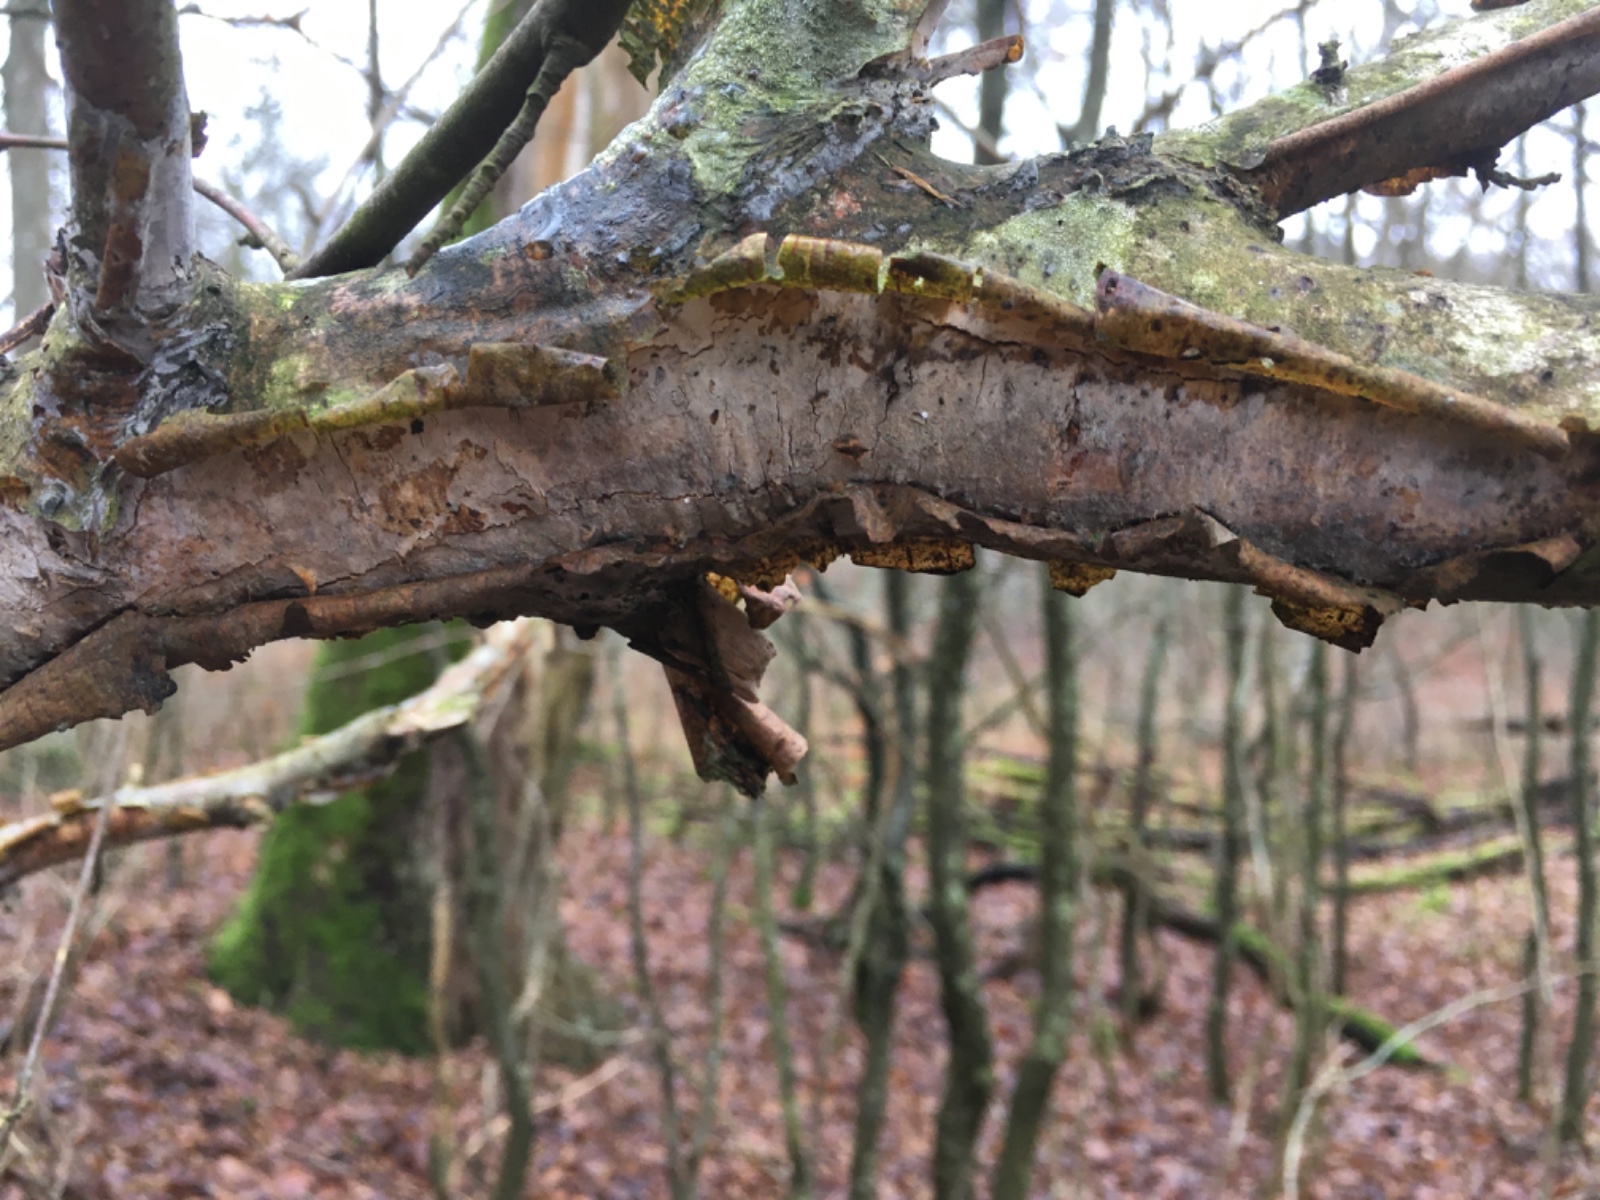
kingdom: Fungi
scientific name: Fungi
